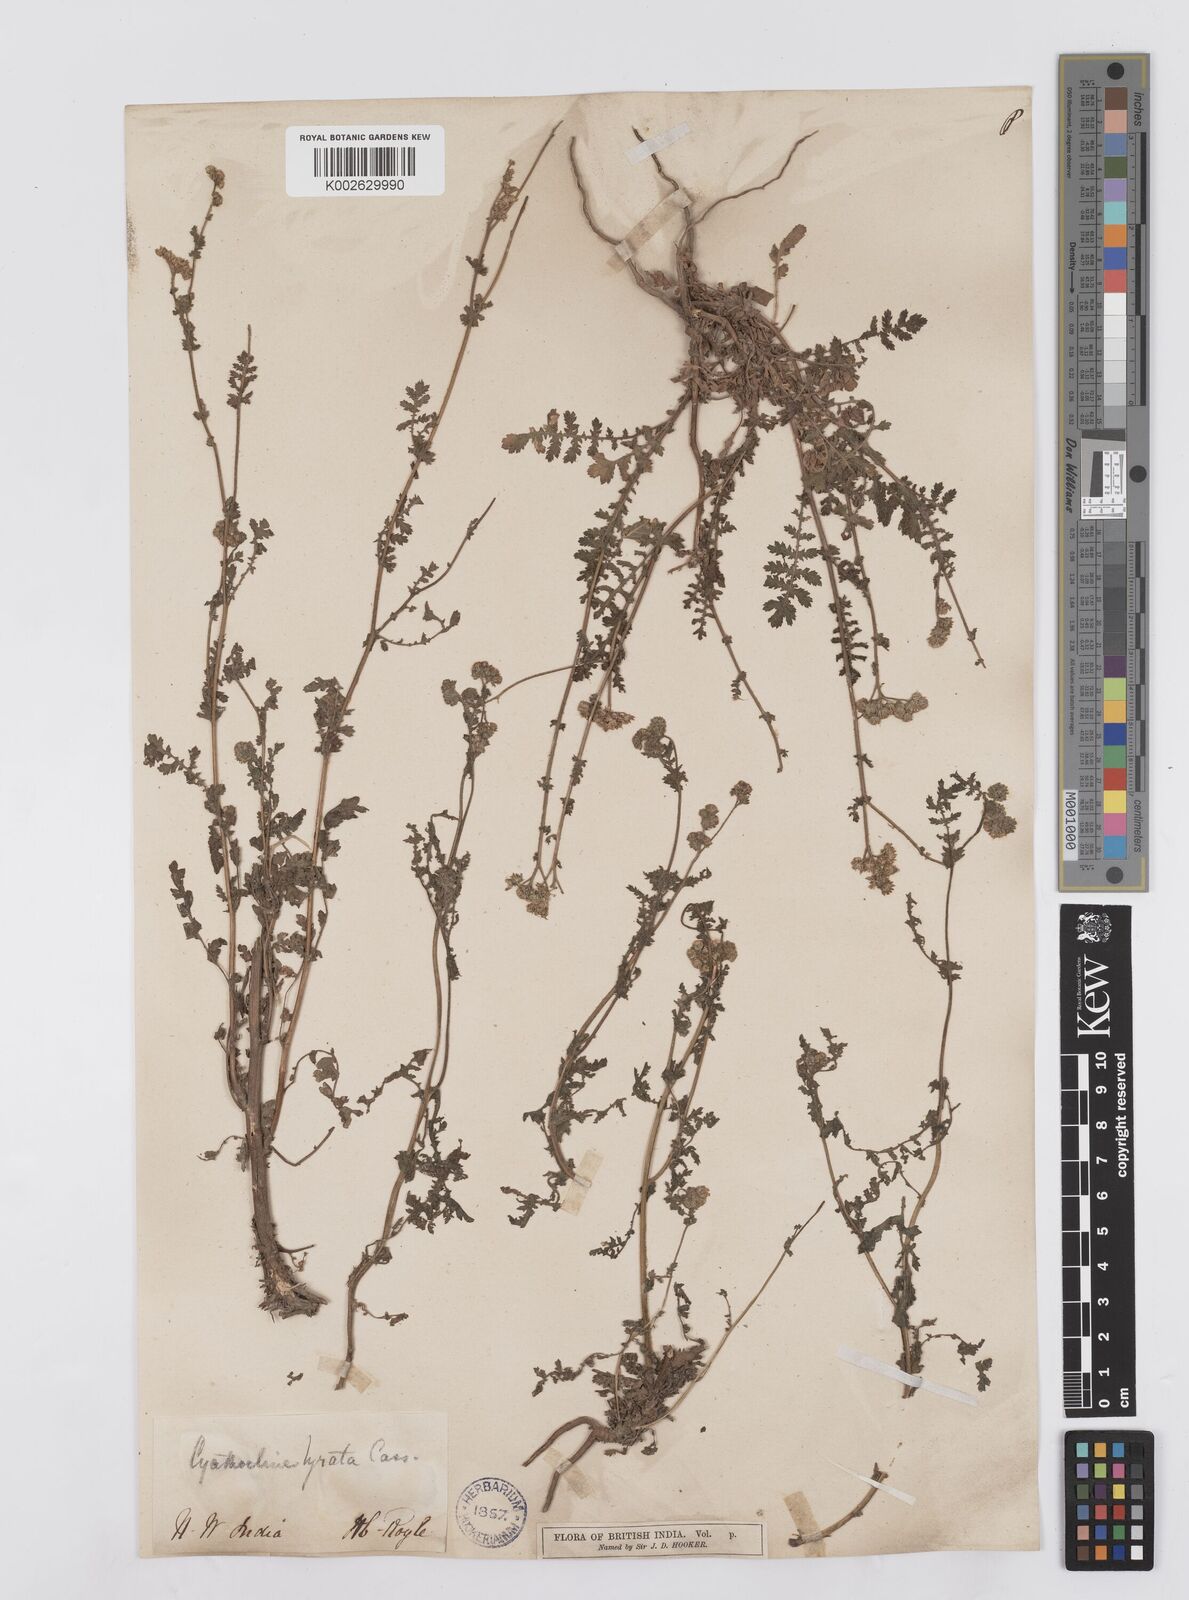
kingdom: Plantae
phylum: Tracheophyta
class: Magnoliopsida
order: Asterales
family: Asteraceae
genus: Cyathocline
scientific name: Cyathocline purpurea
